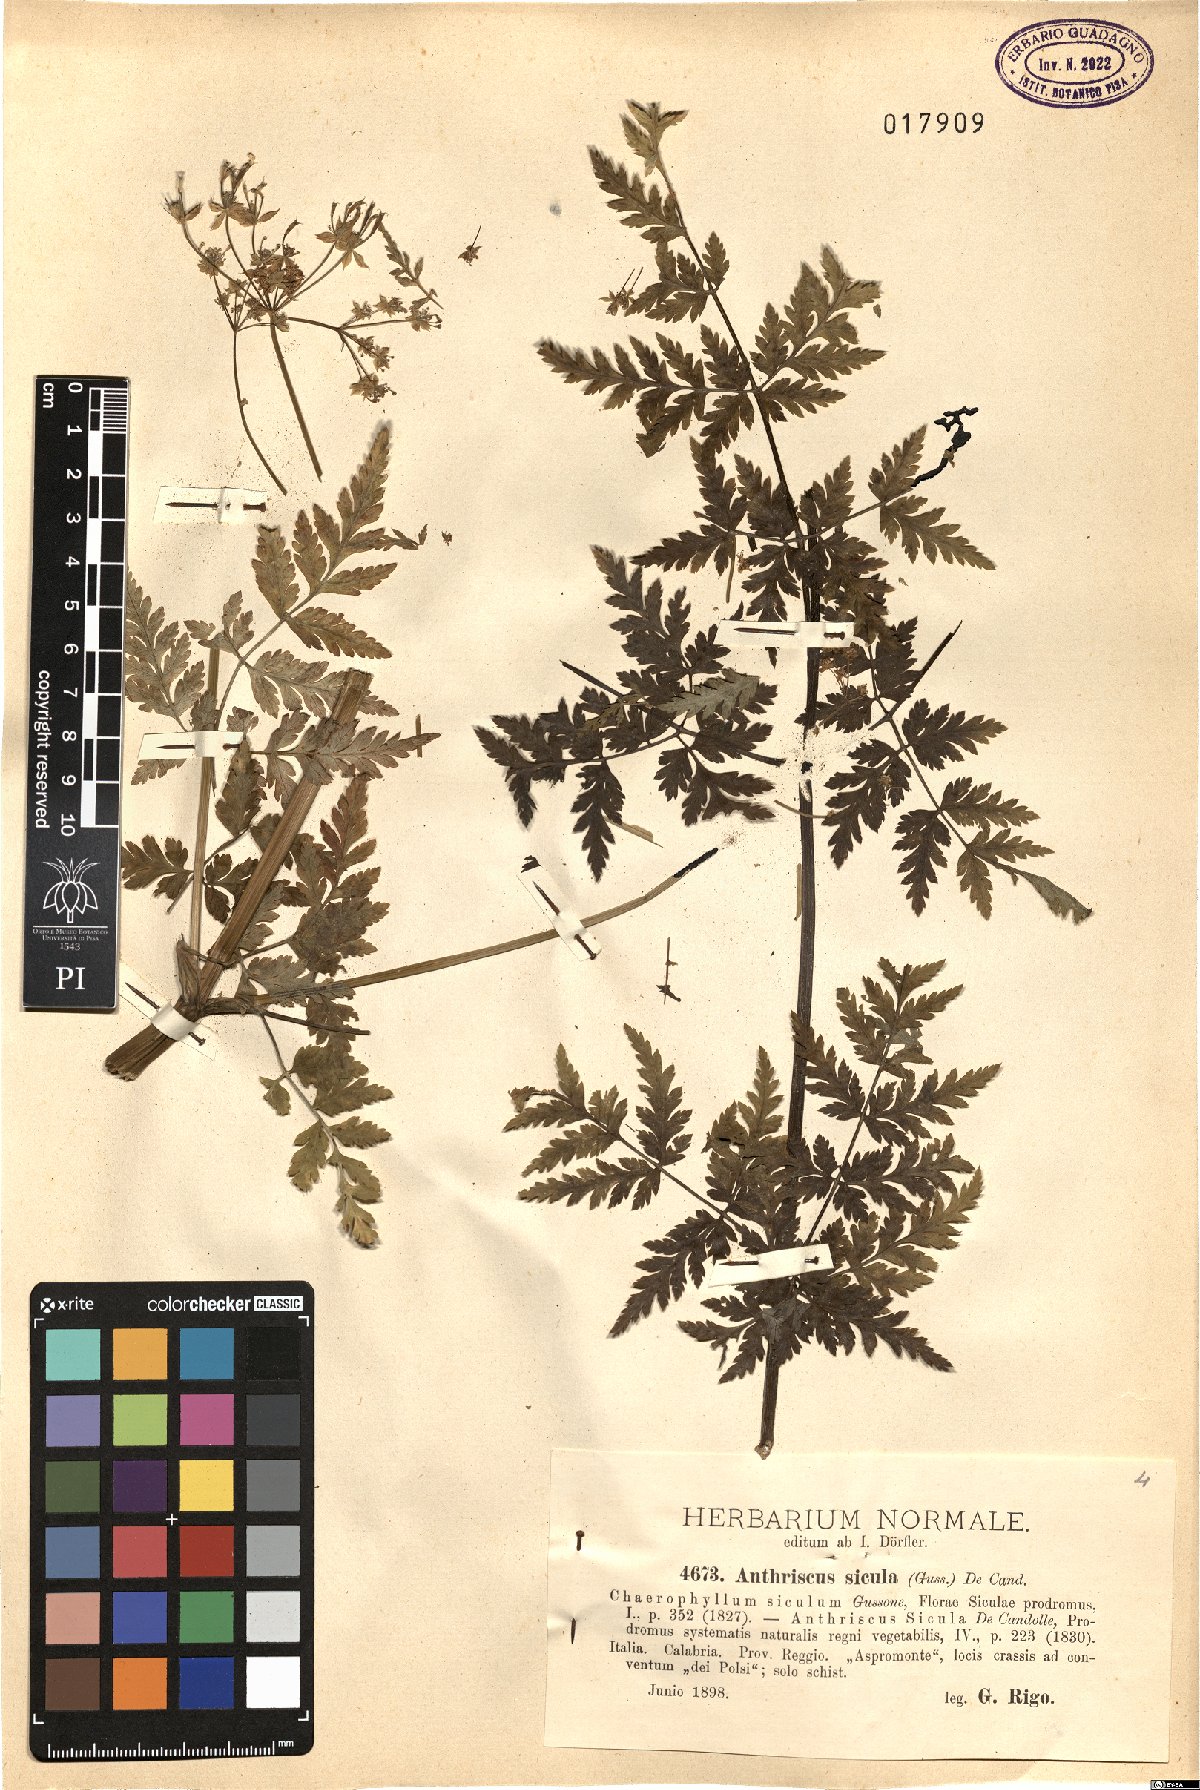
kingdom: Plantae
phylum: Tracheophyta
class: Magnoliopsida
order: Apiales
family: Apiaceae
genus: Anthriscus
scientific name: Anthriscus sicula
